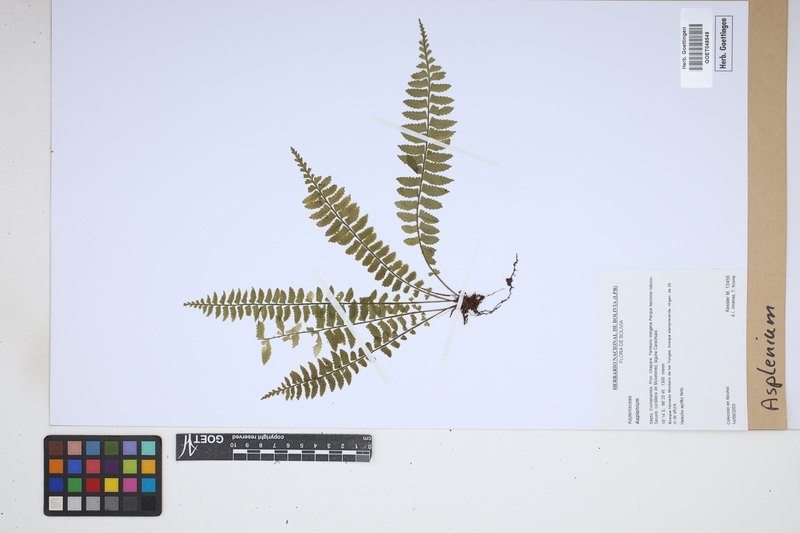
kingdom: Plantae
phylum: Tracheophyta
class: Polypodiopsida
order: Polypodiales
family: Aspleniaceae
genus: Asplenium
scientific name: Asplenium
